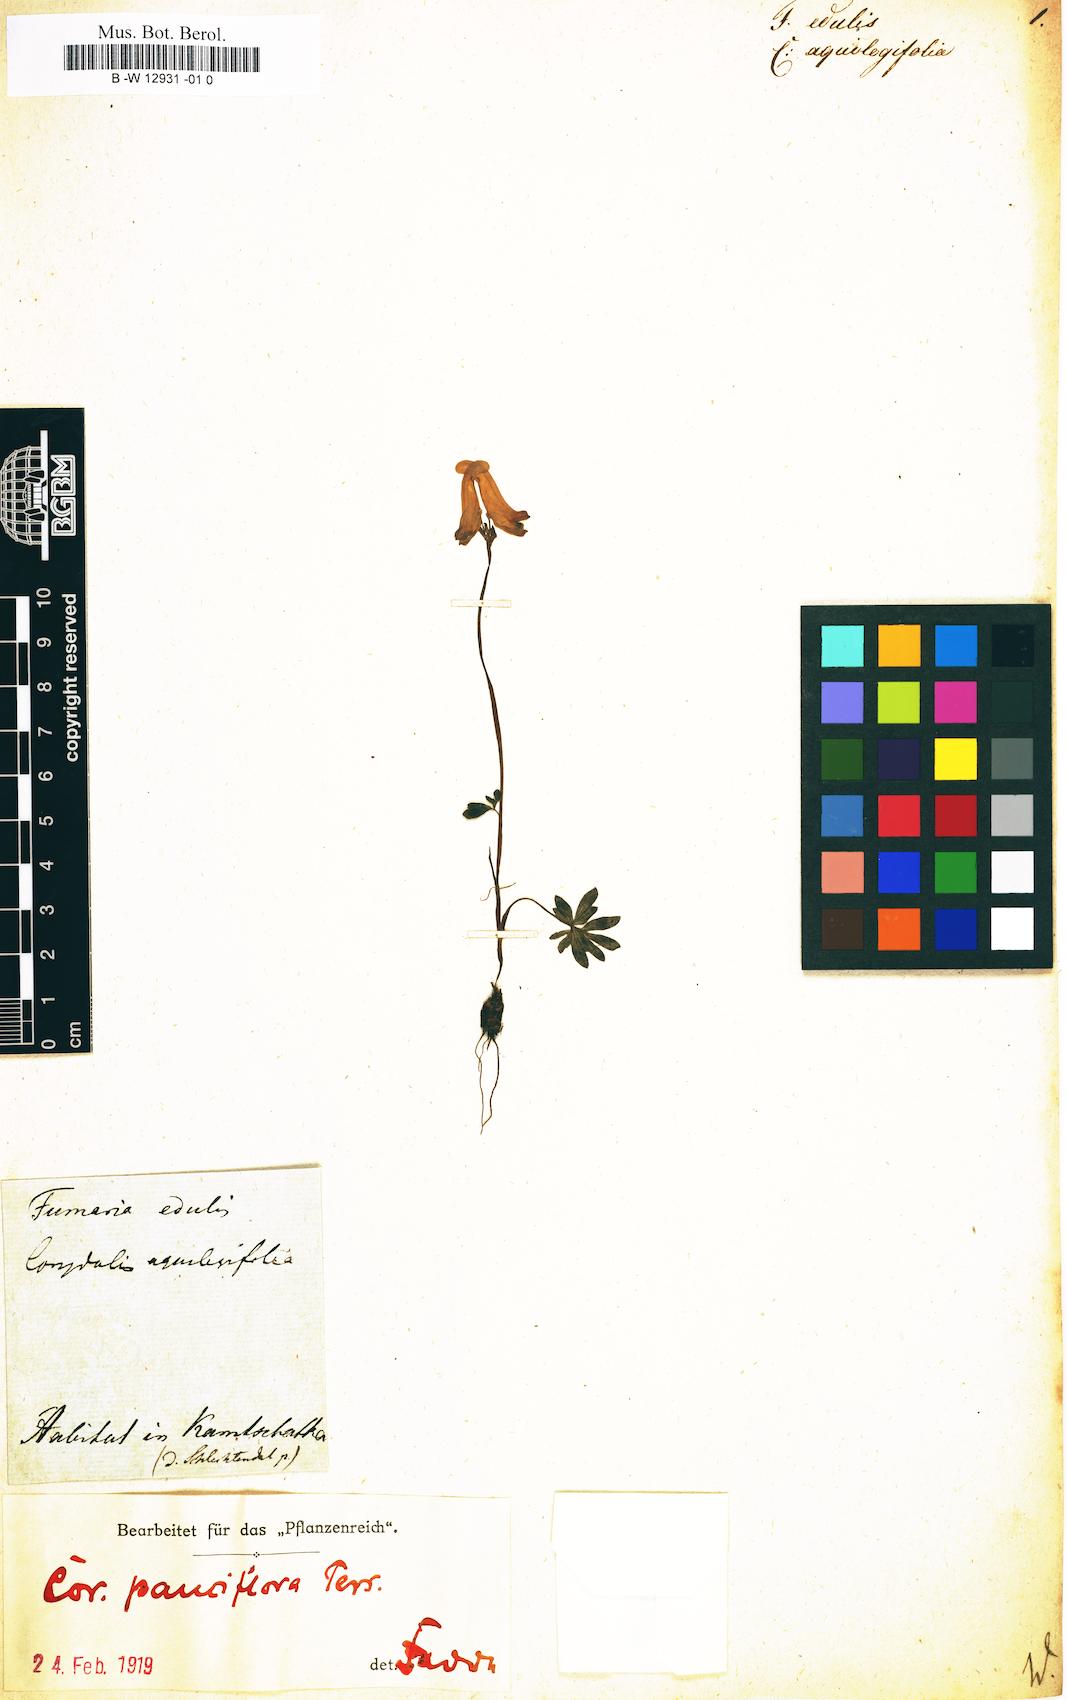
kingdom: Plantae
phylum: Tracheophyta
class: Magnoliopsida
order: Ranunculales
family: Papaveraceae
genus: Fumaria
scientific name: Fumaria
